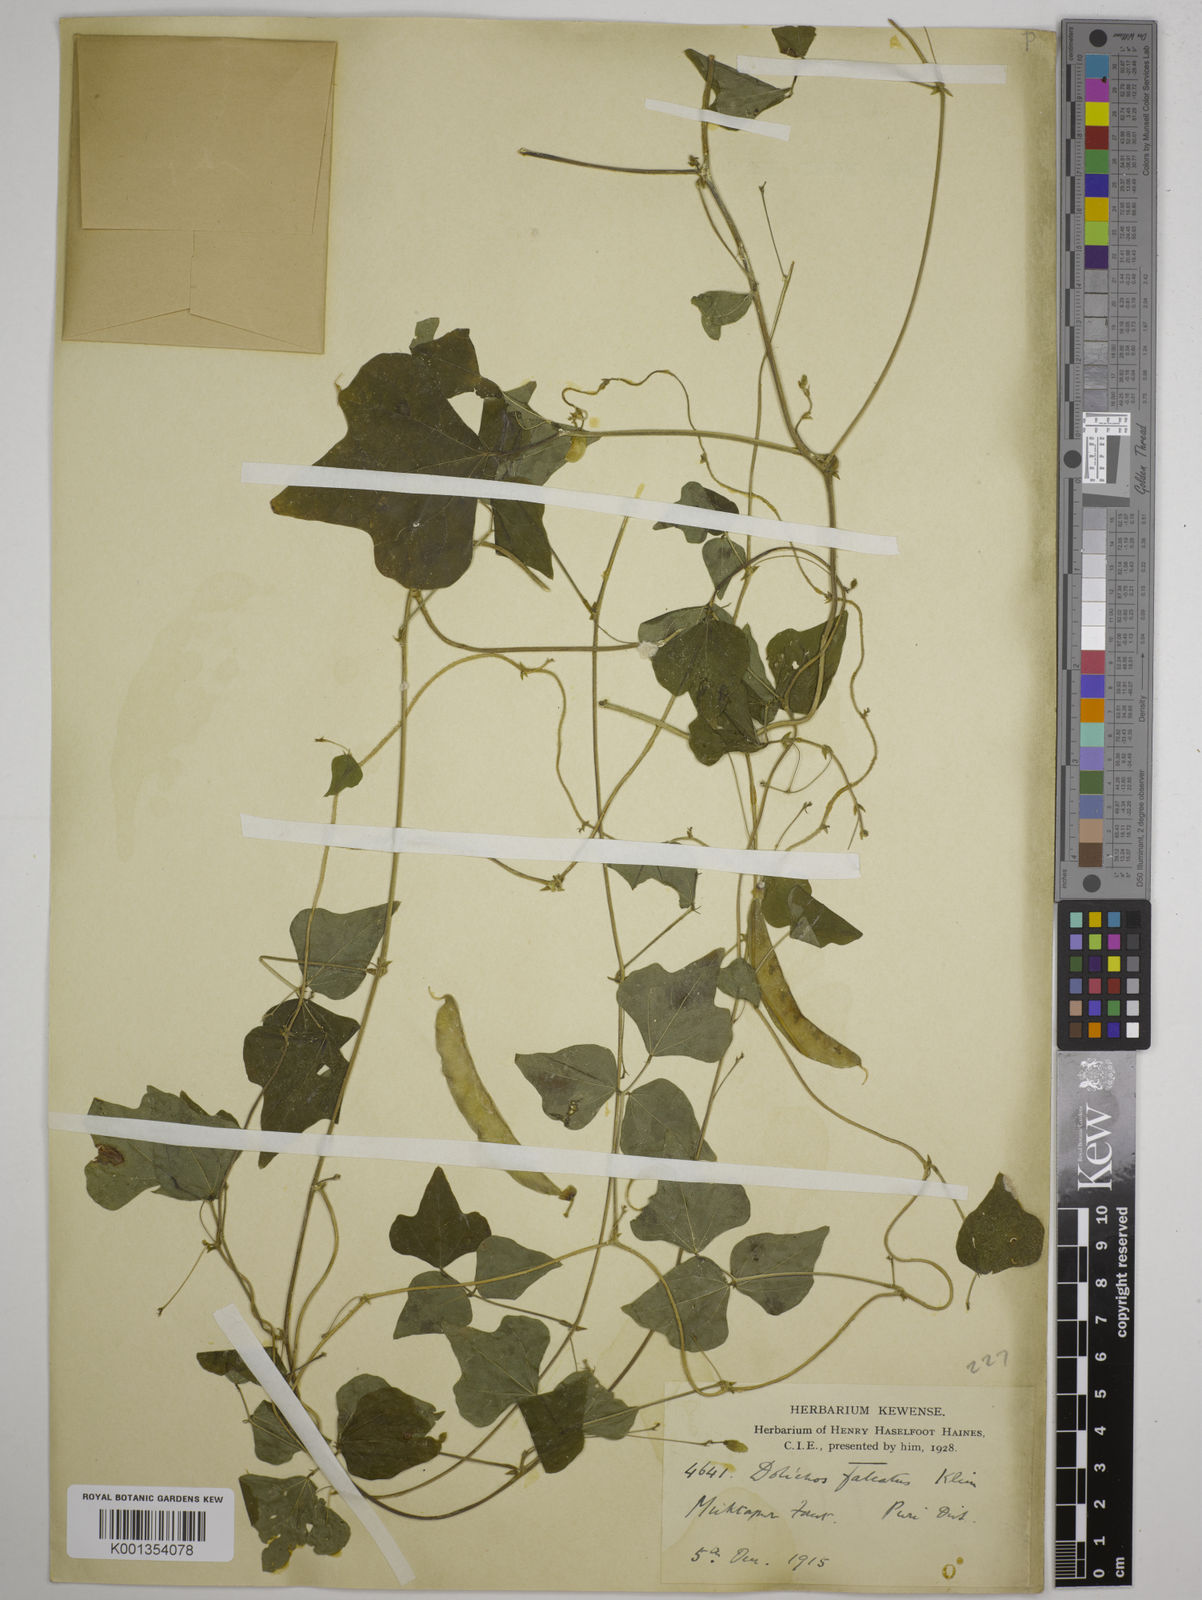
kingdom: Plantae
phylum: Tracheophyta
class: Magnoliopsida
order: Fabales
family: Fabaceae
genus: Dolichos
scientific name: Dolichos
